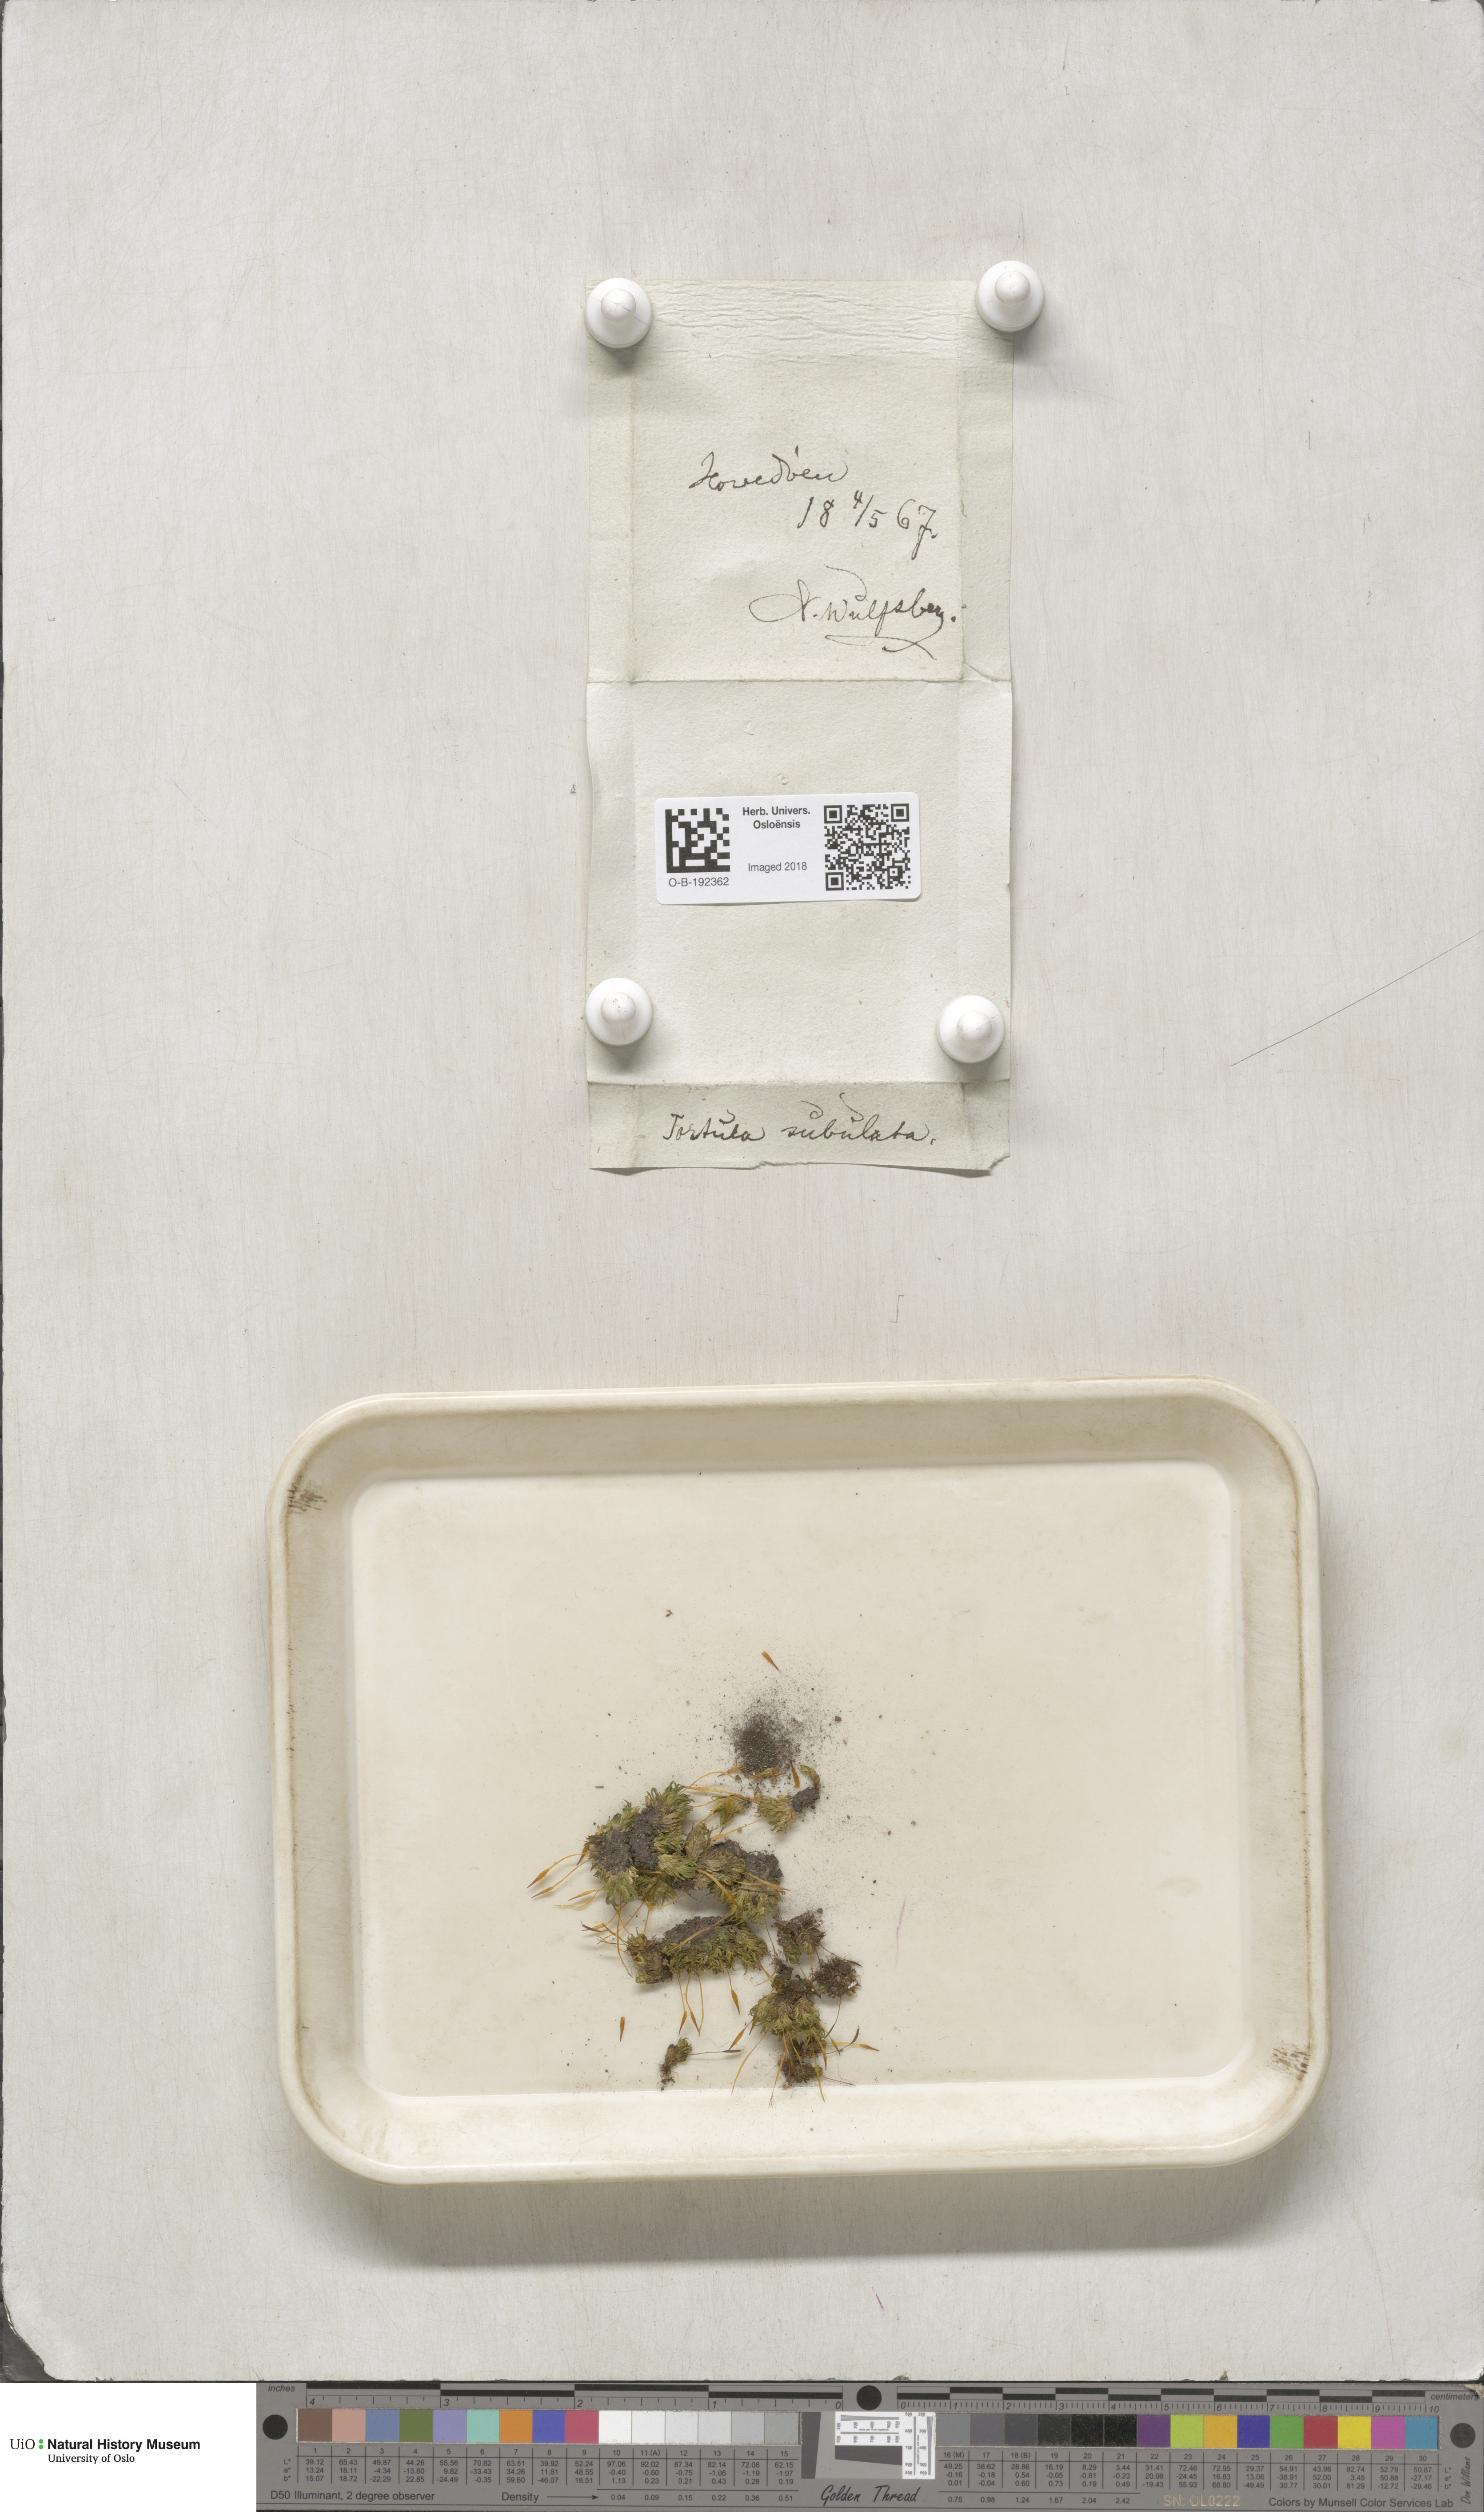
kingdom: Plantae
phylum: Bryophyta
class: Bryopsida
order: Pottiales
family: Pottiaceae
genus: Tortula
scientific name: Tortula subulata
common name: Upright screw-moss
